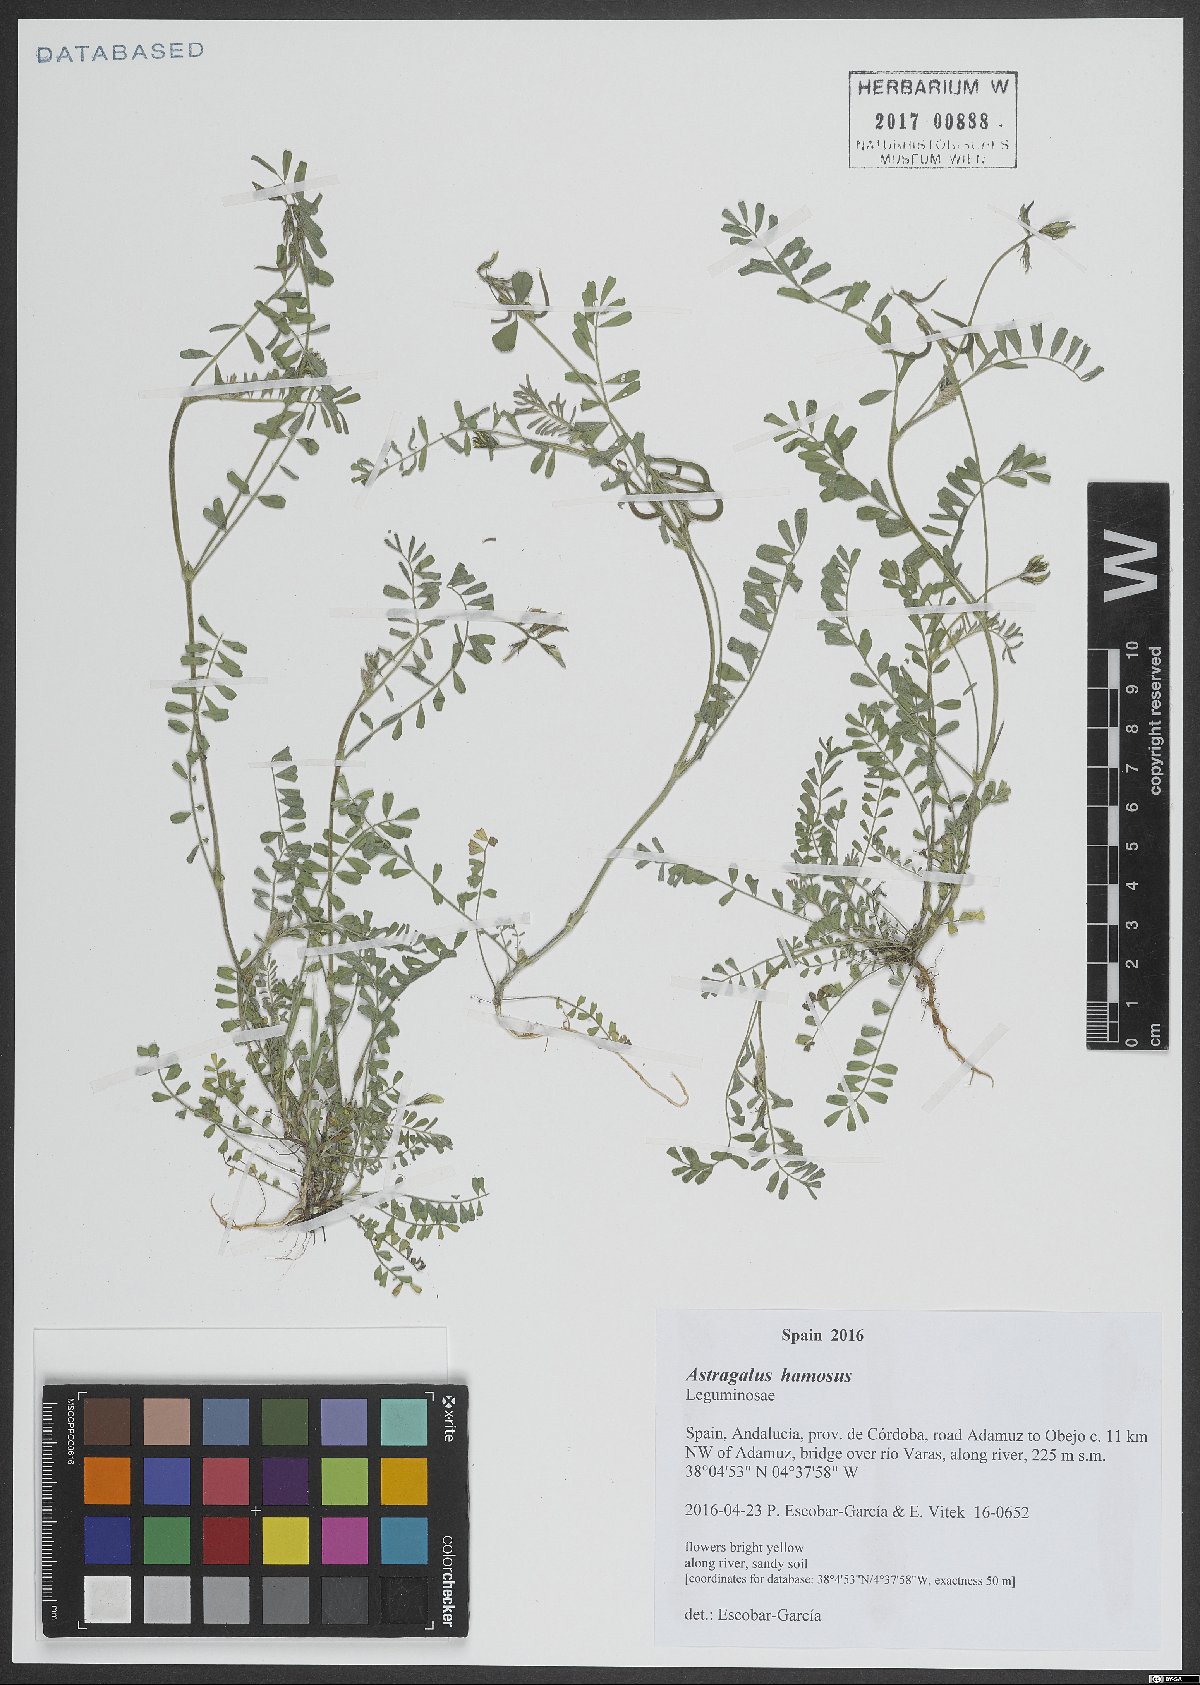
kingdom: Plantae
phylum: Tracheophyta
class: Magnoliopsida
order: Fabales
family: Fabaceae
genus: Astragalus
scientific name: Astragalus hamosus
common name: European milkvetch
